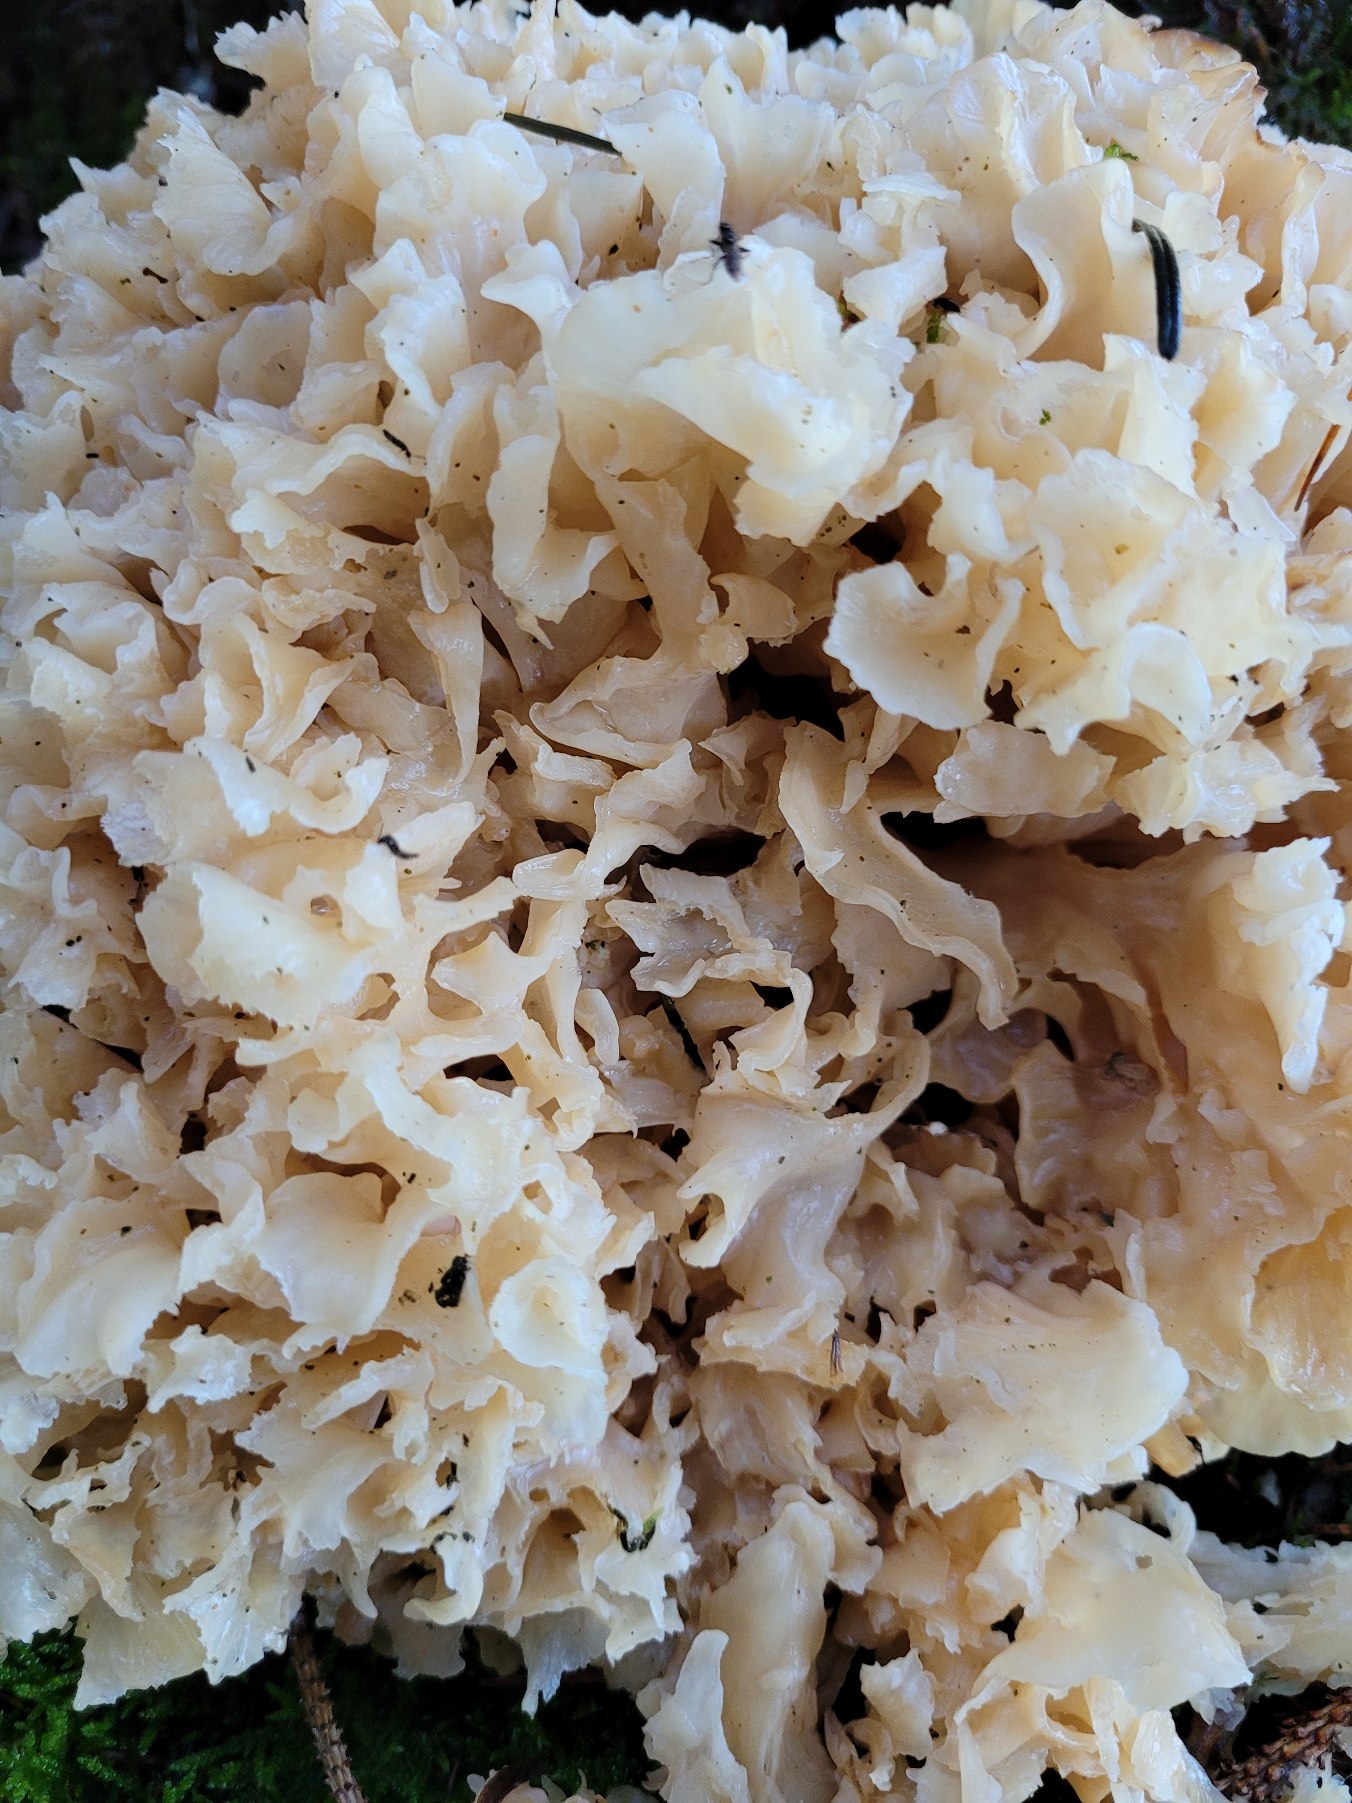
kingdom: Fungi
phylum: Basidiomycota
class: Agaricomycetes
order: Polyporales
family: Sparassidaceae
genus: Sparassis
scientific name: Sparassis crispa
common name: Kruset blomkålssvamp
